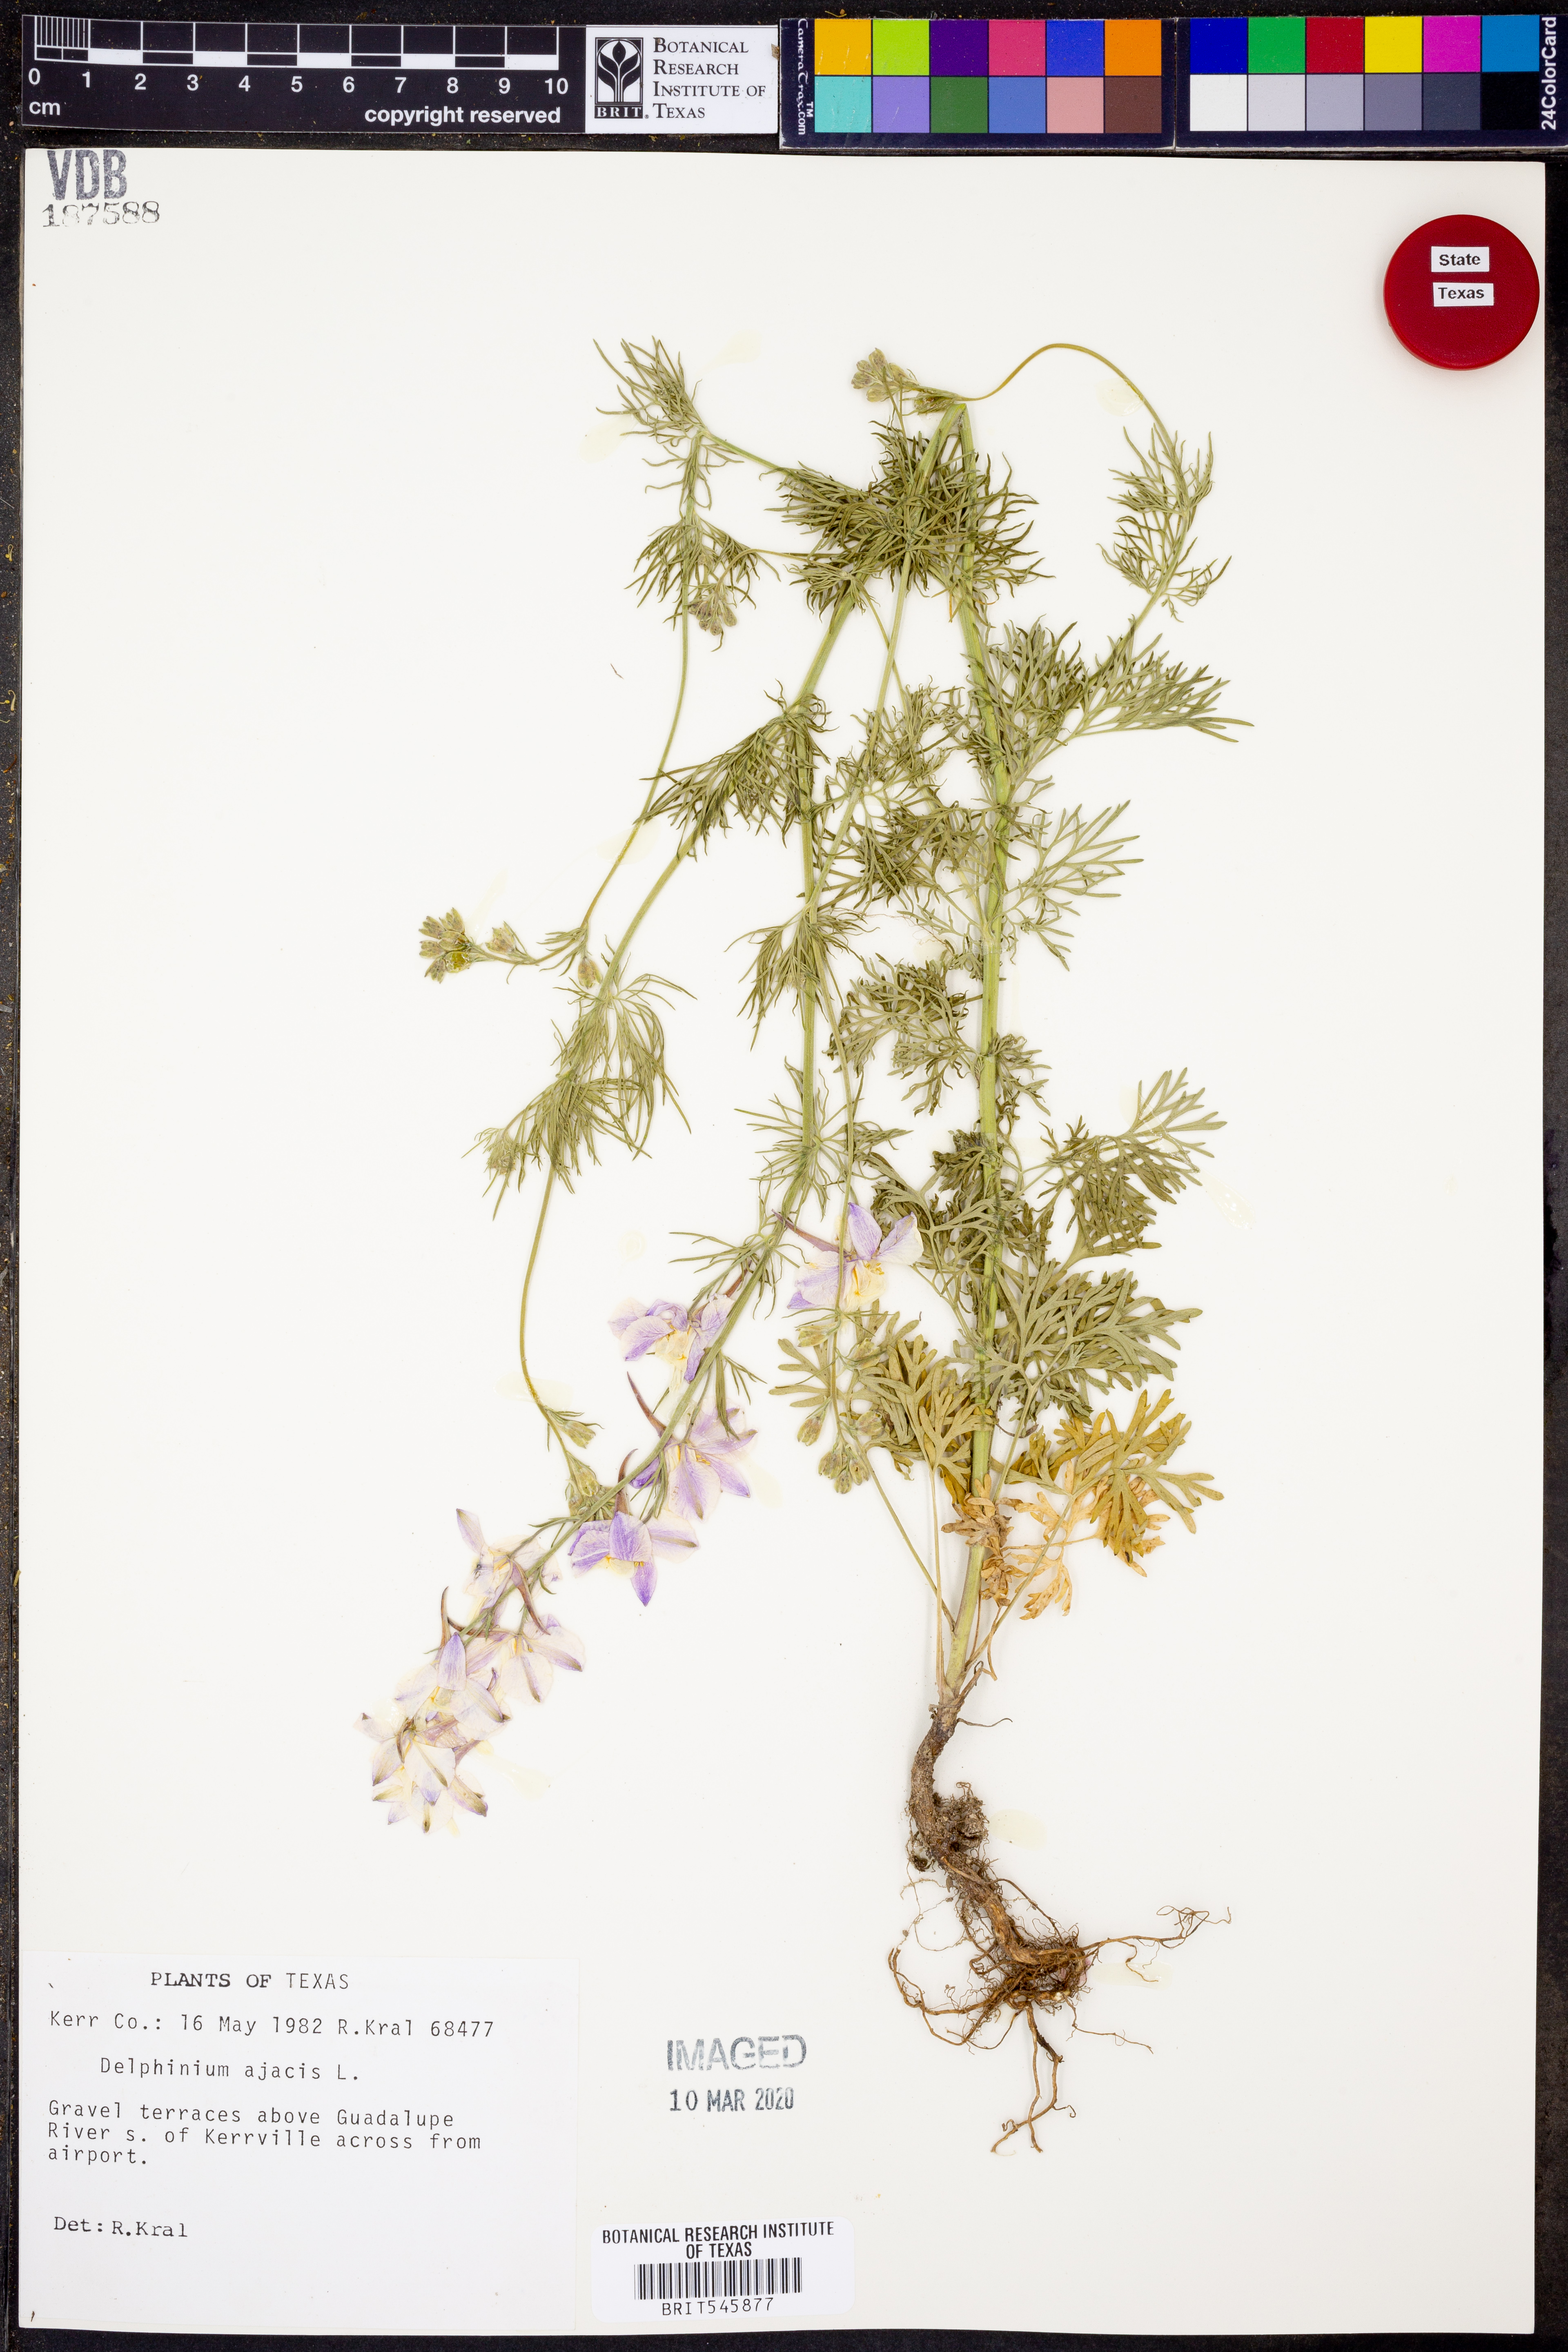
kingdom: Plantae
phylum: Tracheophyta
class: Magnoliopsida
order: Ranunculales
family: Ranunculaceae
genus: Delphinium
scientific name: Delphinium ajacis
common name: Doubtful knight's-spur
